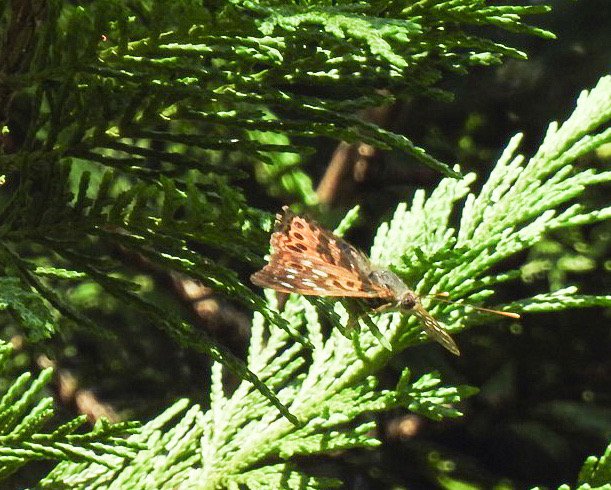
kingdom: Animalia
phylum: Arthropoda
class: Insecta
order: Lepidoptera
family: Nymphalidae
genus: Asterocampa
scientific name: Asterocampa celtis
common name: Hackberry Emperor
